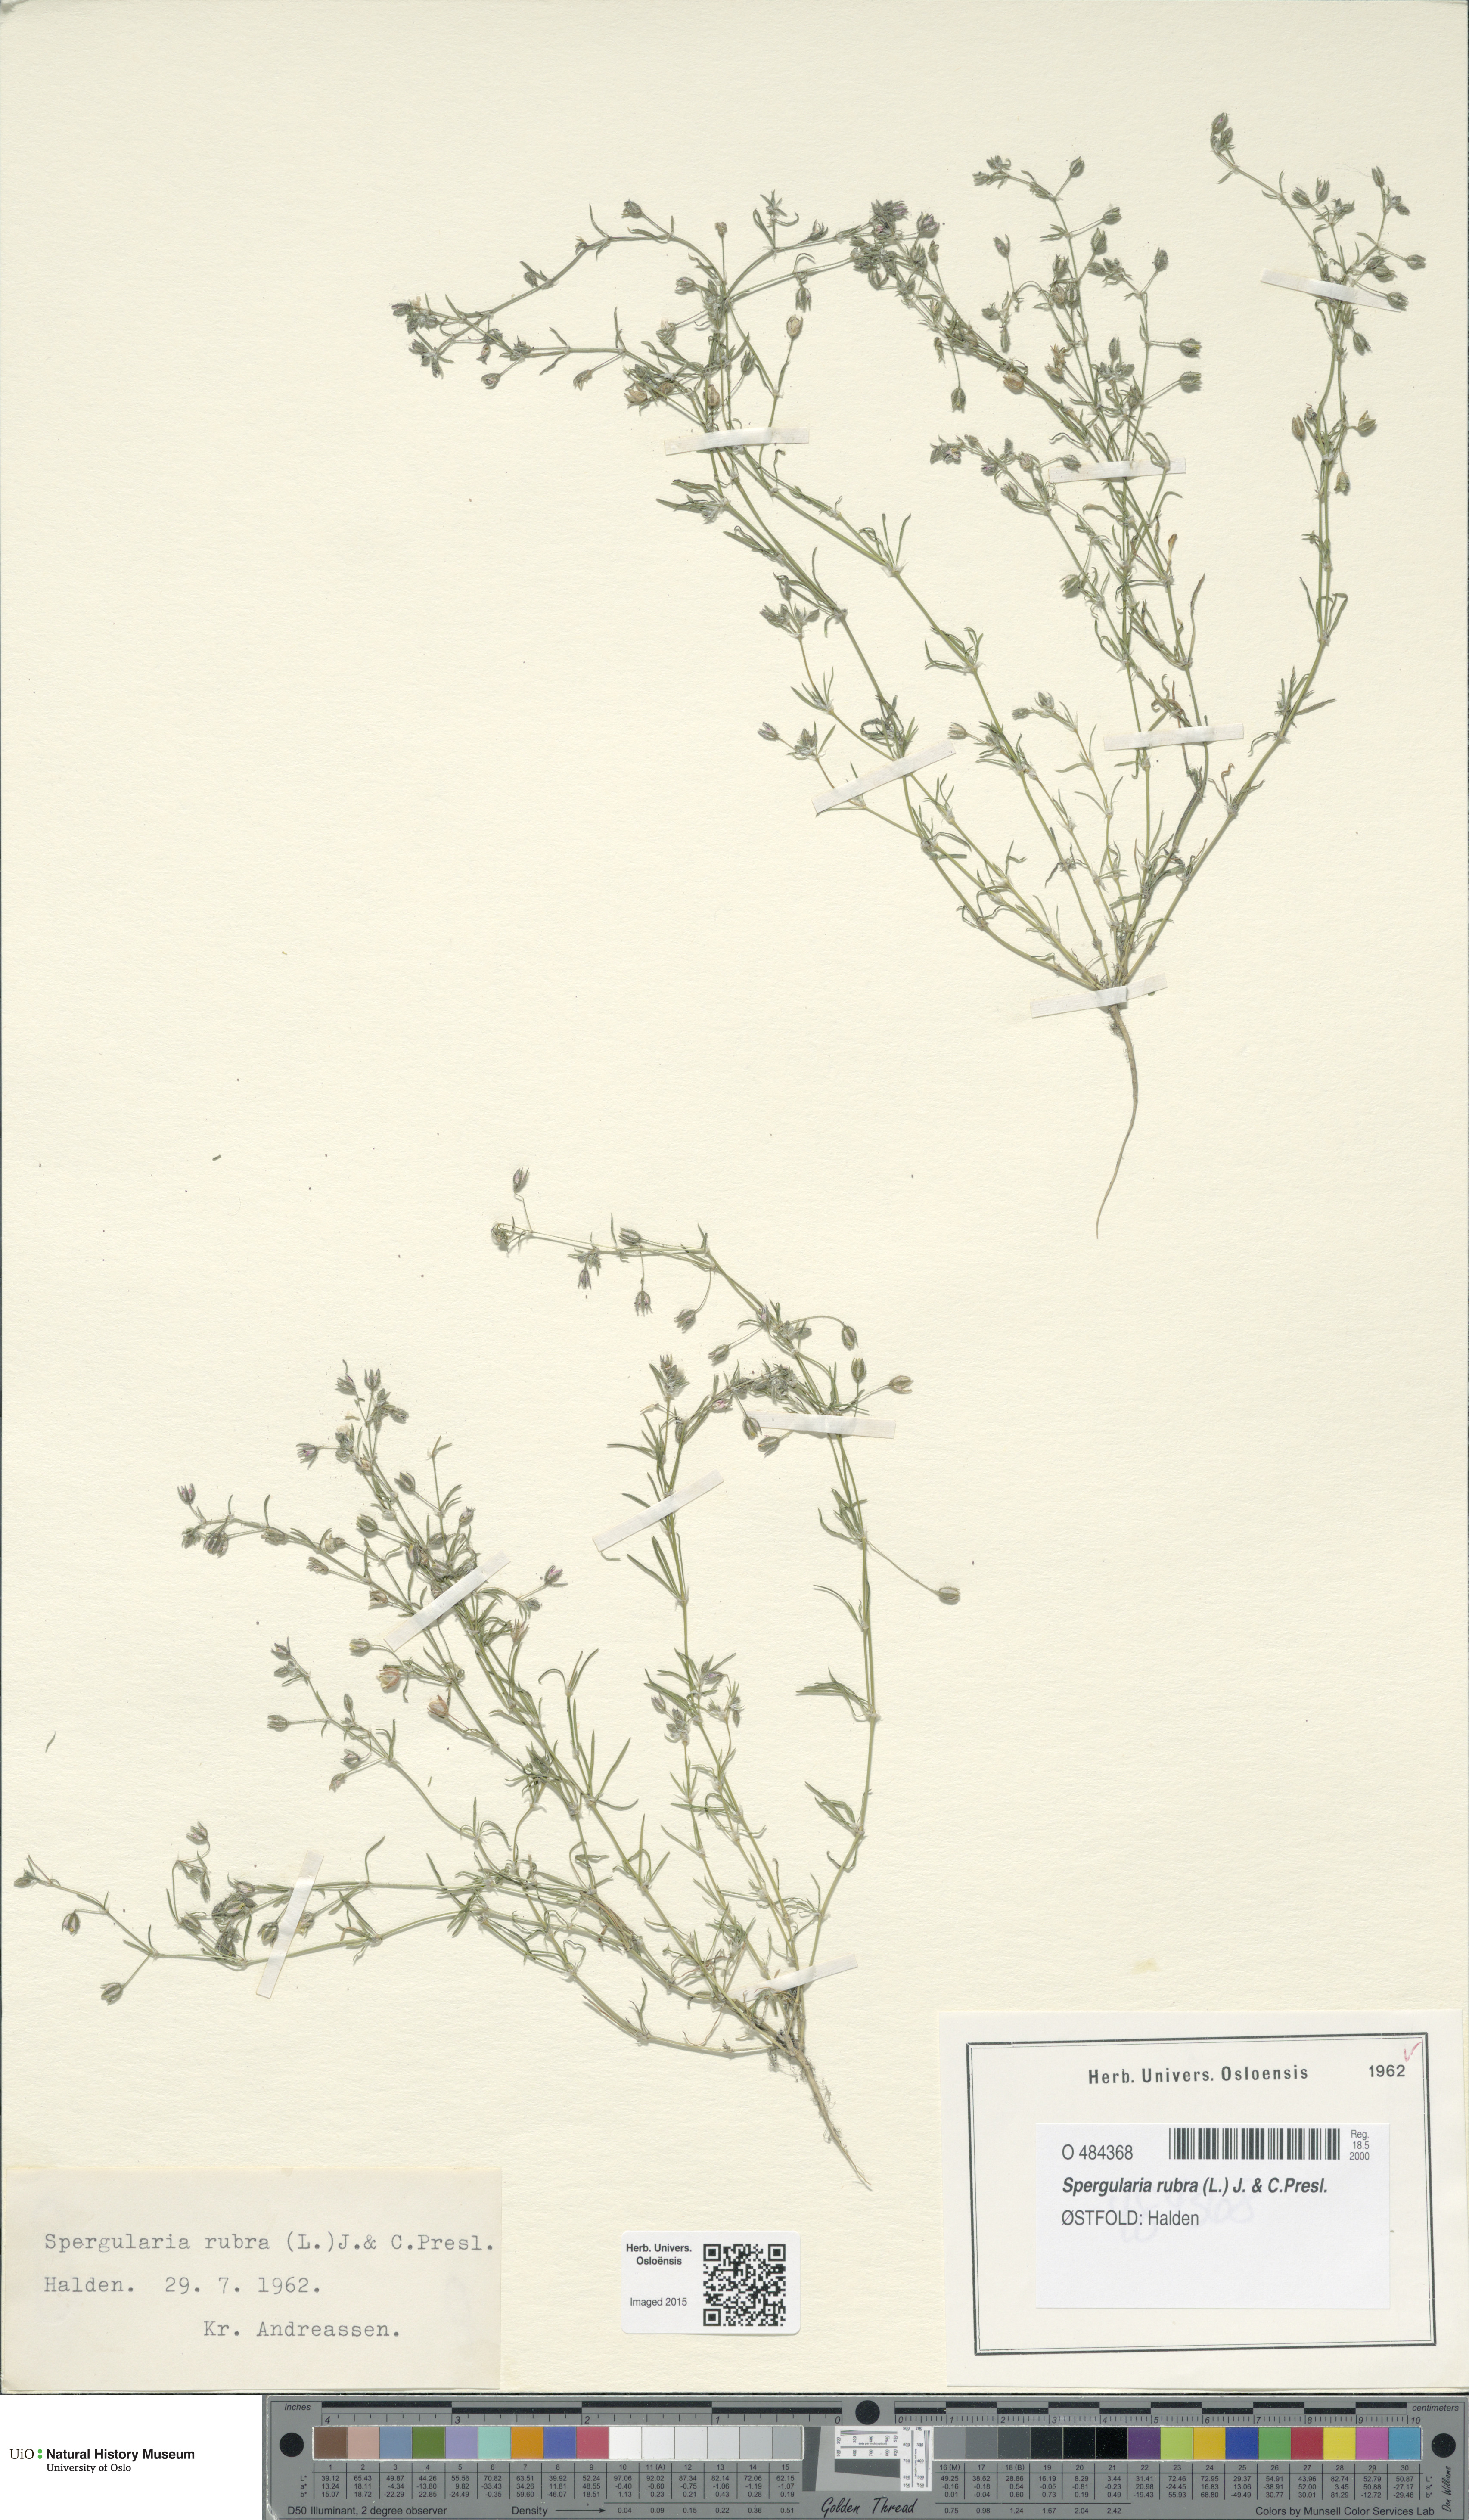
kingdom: Plantae
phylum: Tracheophyta
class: Magnoliopsida
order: Caryophyllales
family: Caryophyllaceae
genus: Spergularia
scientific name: Spergularia rubra
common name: Red sand-spurrey
